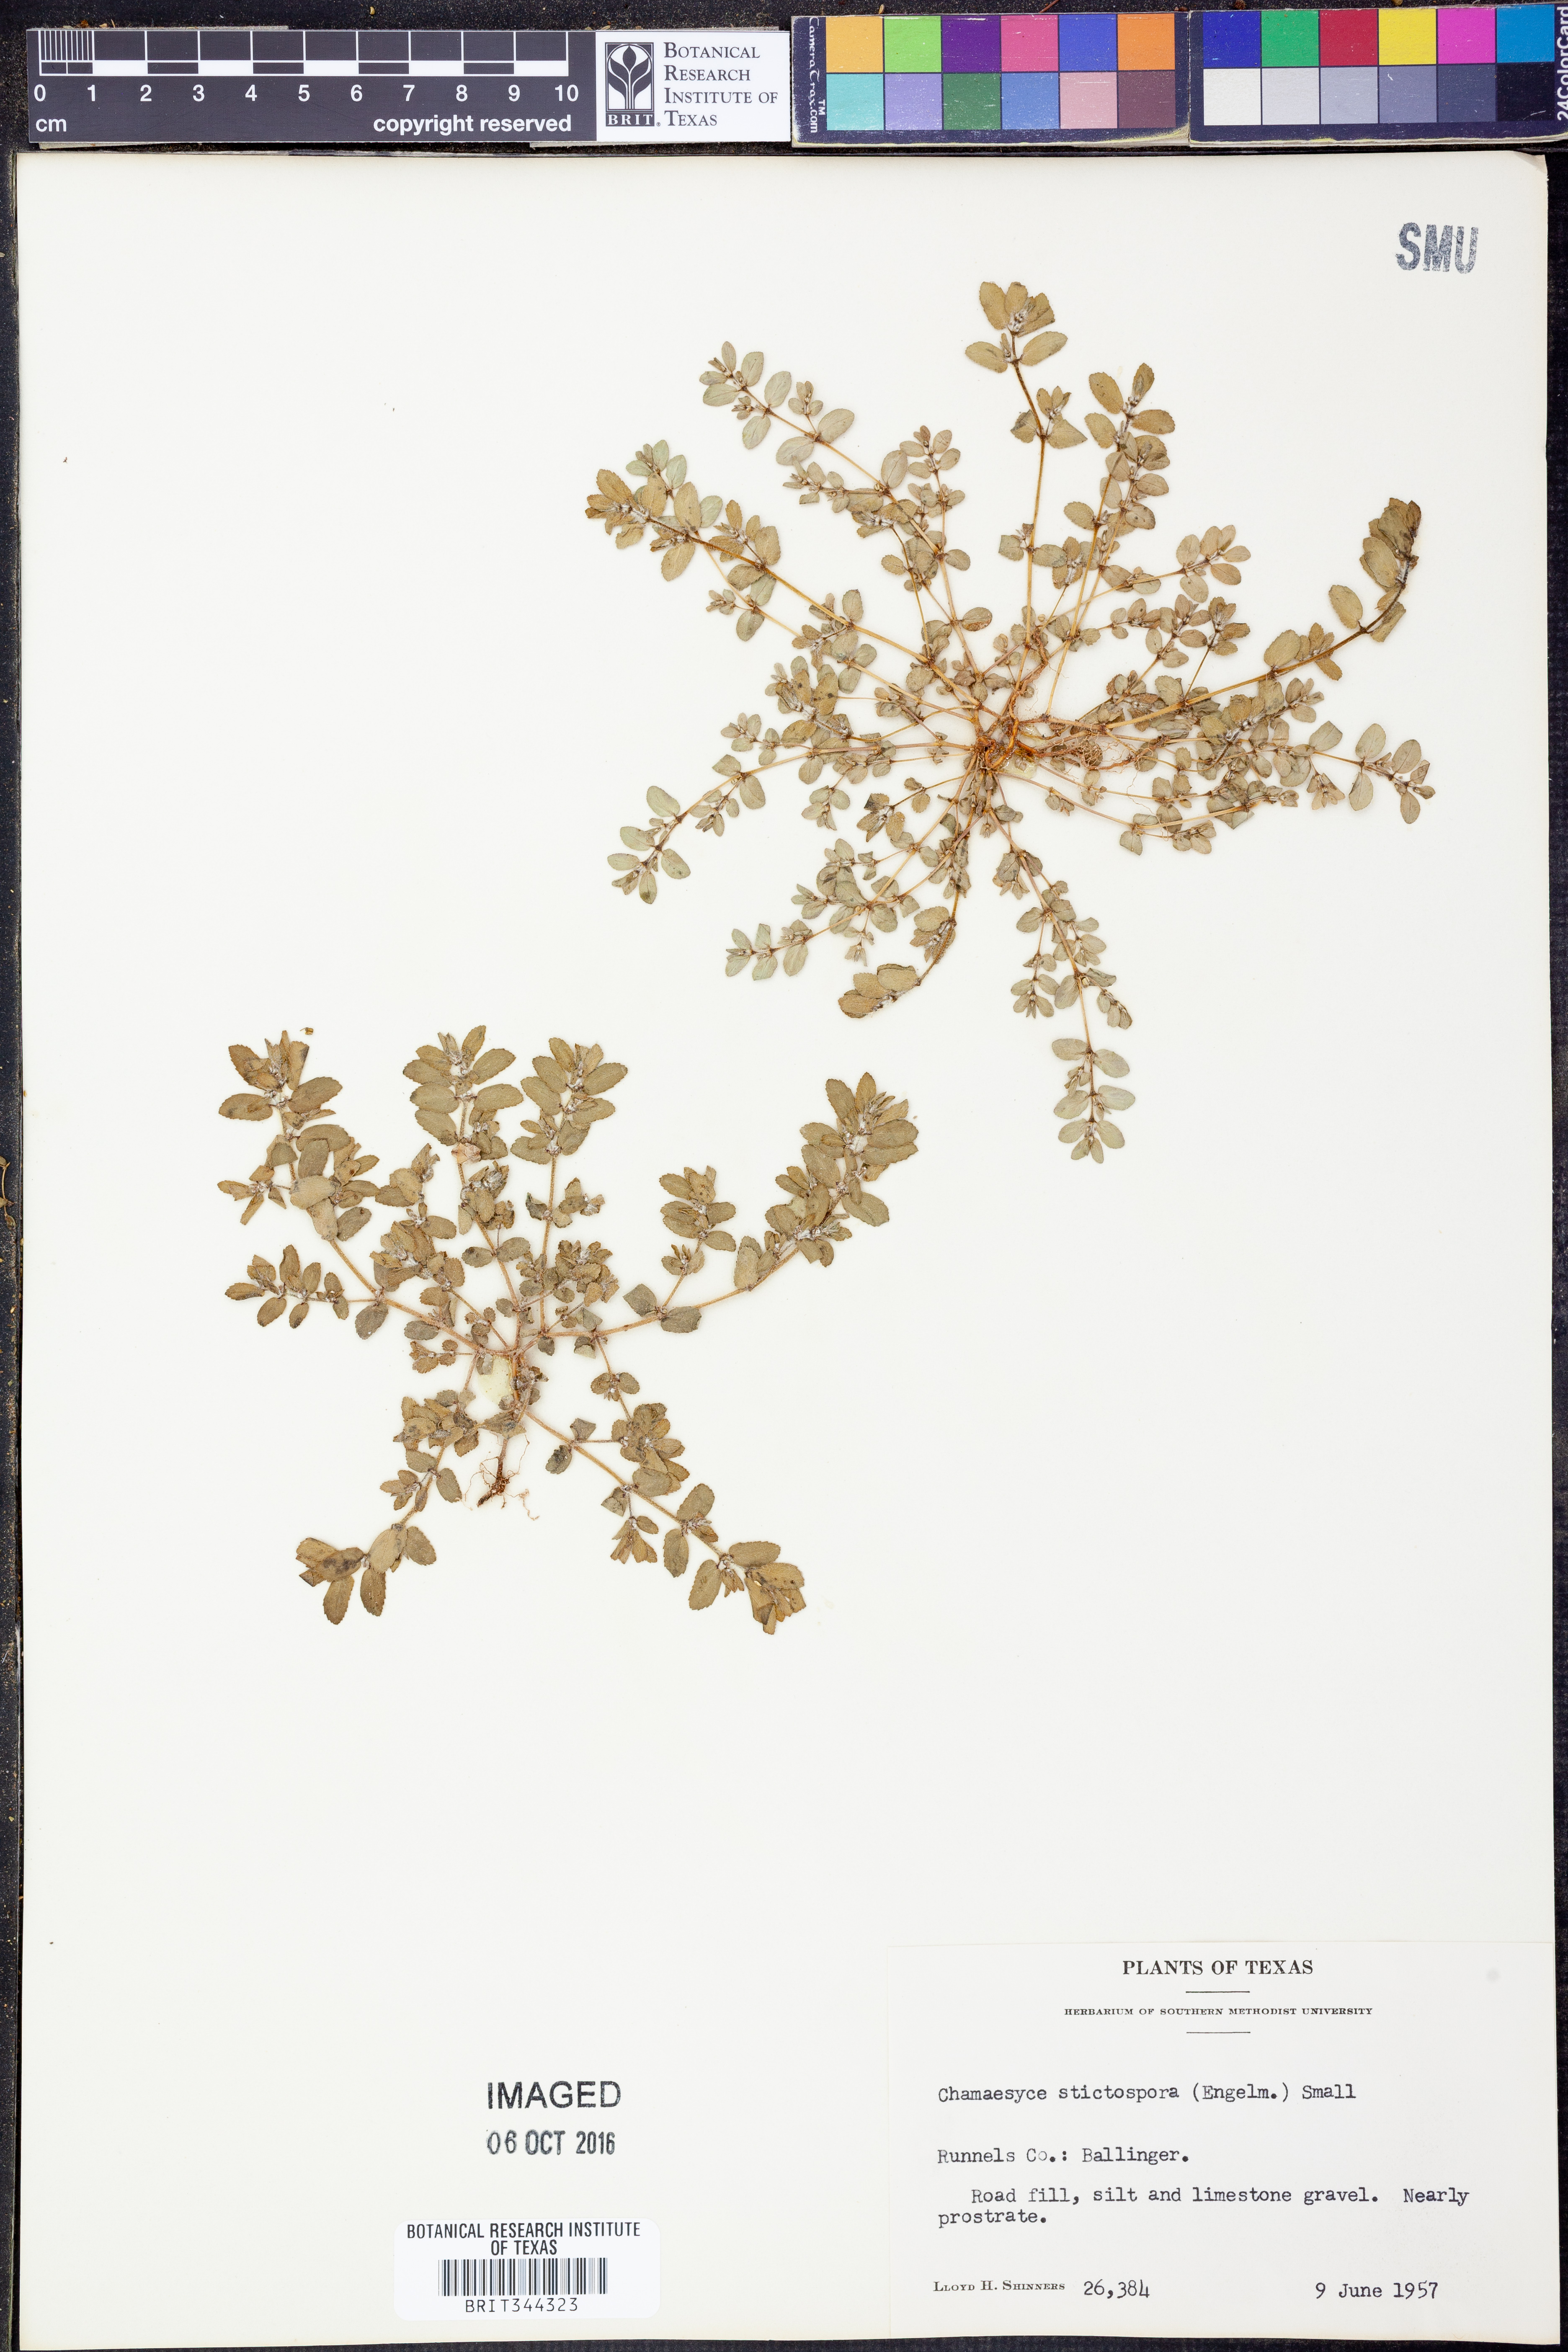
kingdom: Plantae
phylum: Tracheophyta
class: Magnoliopsida
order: Malpighiales
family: Euphorbiaceae
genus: Euphorbia
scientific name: Euphorbia stictospora
